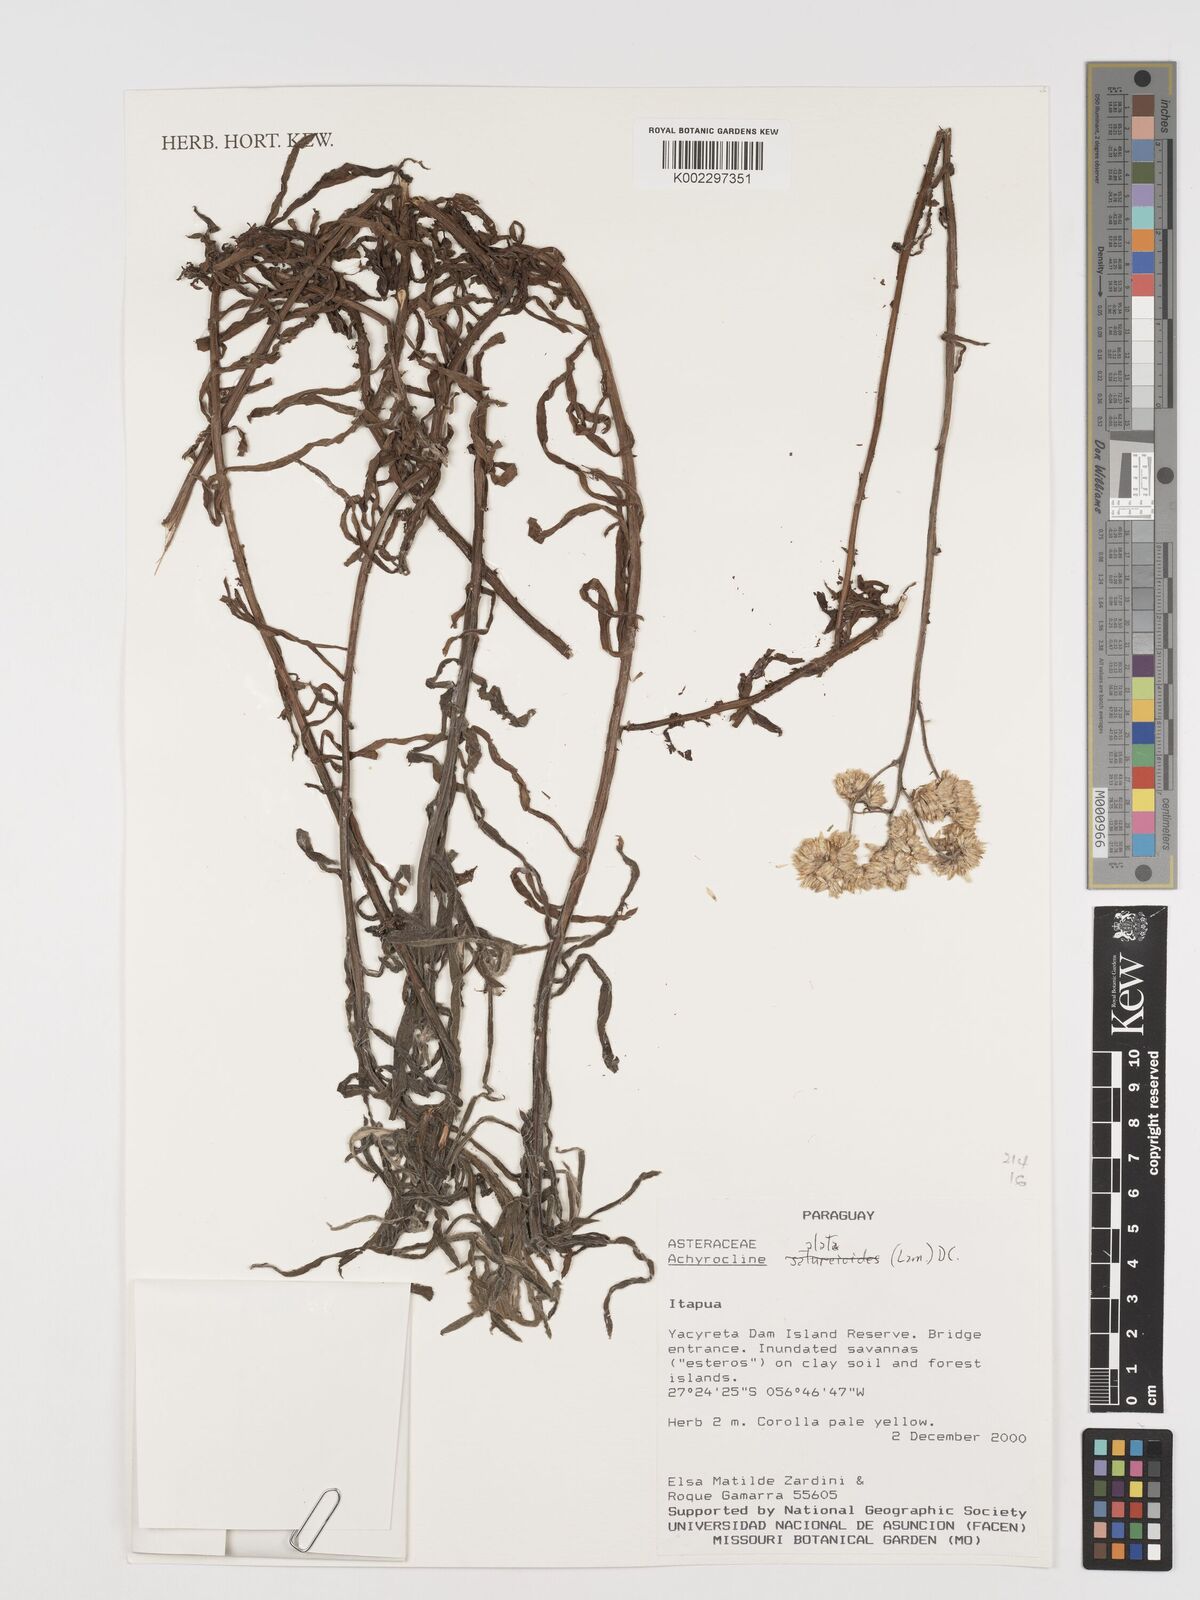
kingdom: Plantae
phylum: Tracheophyta
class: Magnoliopsida
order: Asterales
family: Asteraceae
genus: Achyrocline
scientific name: Achyrocline alata
